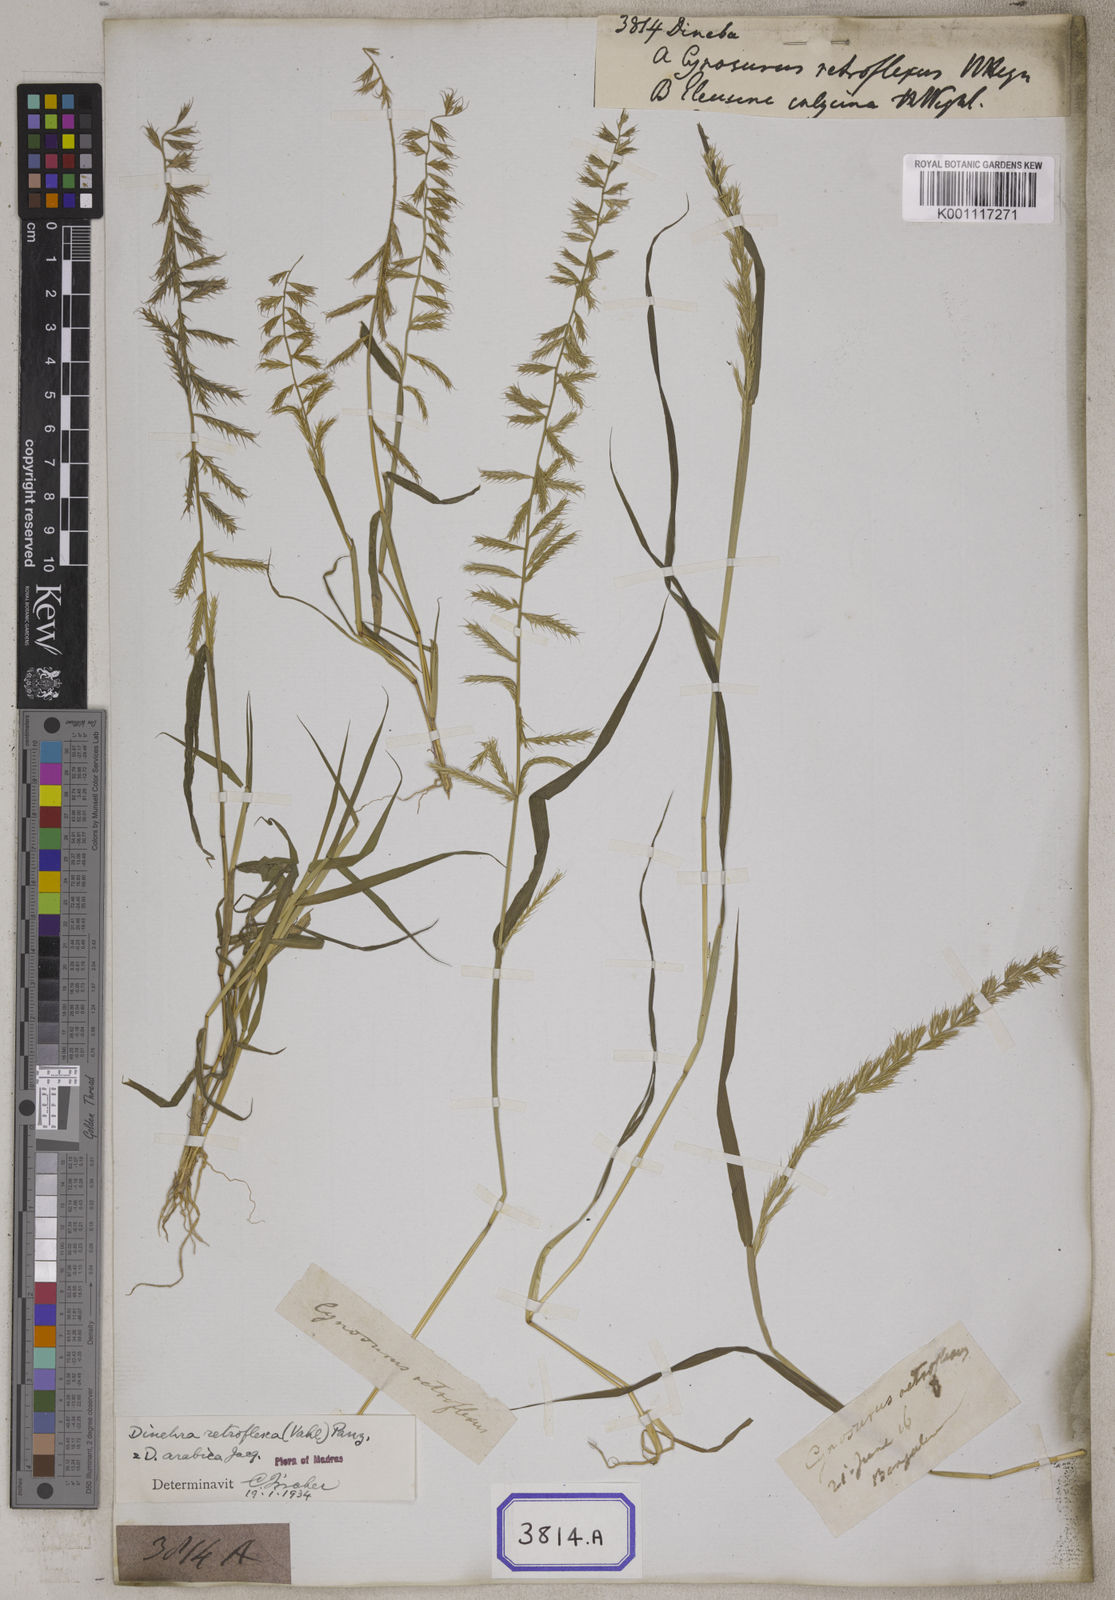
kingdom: Plantae
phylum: Tracheophyta
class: Liliopsida
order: Poales
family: Poaceae
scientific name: Poaceae
